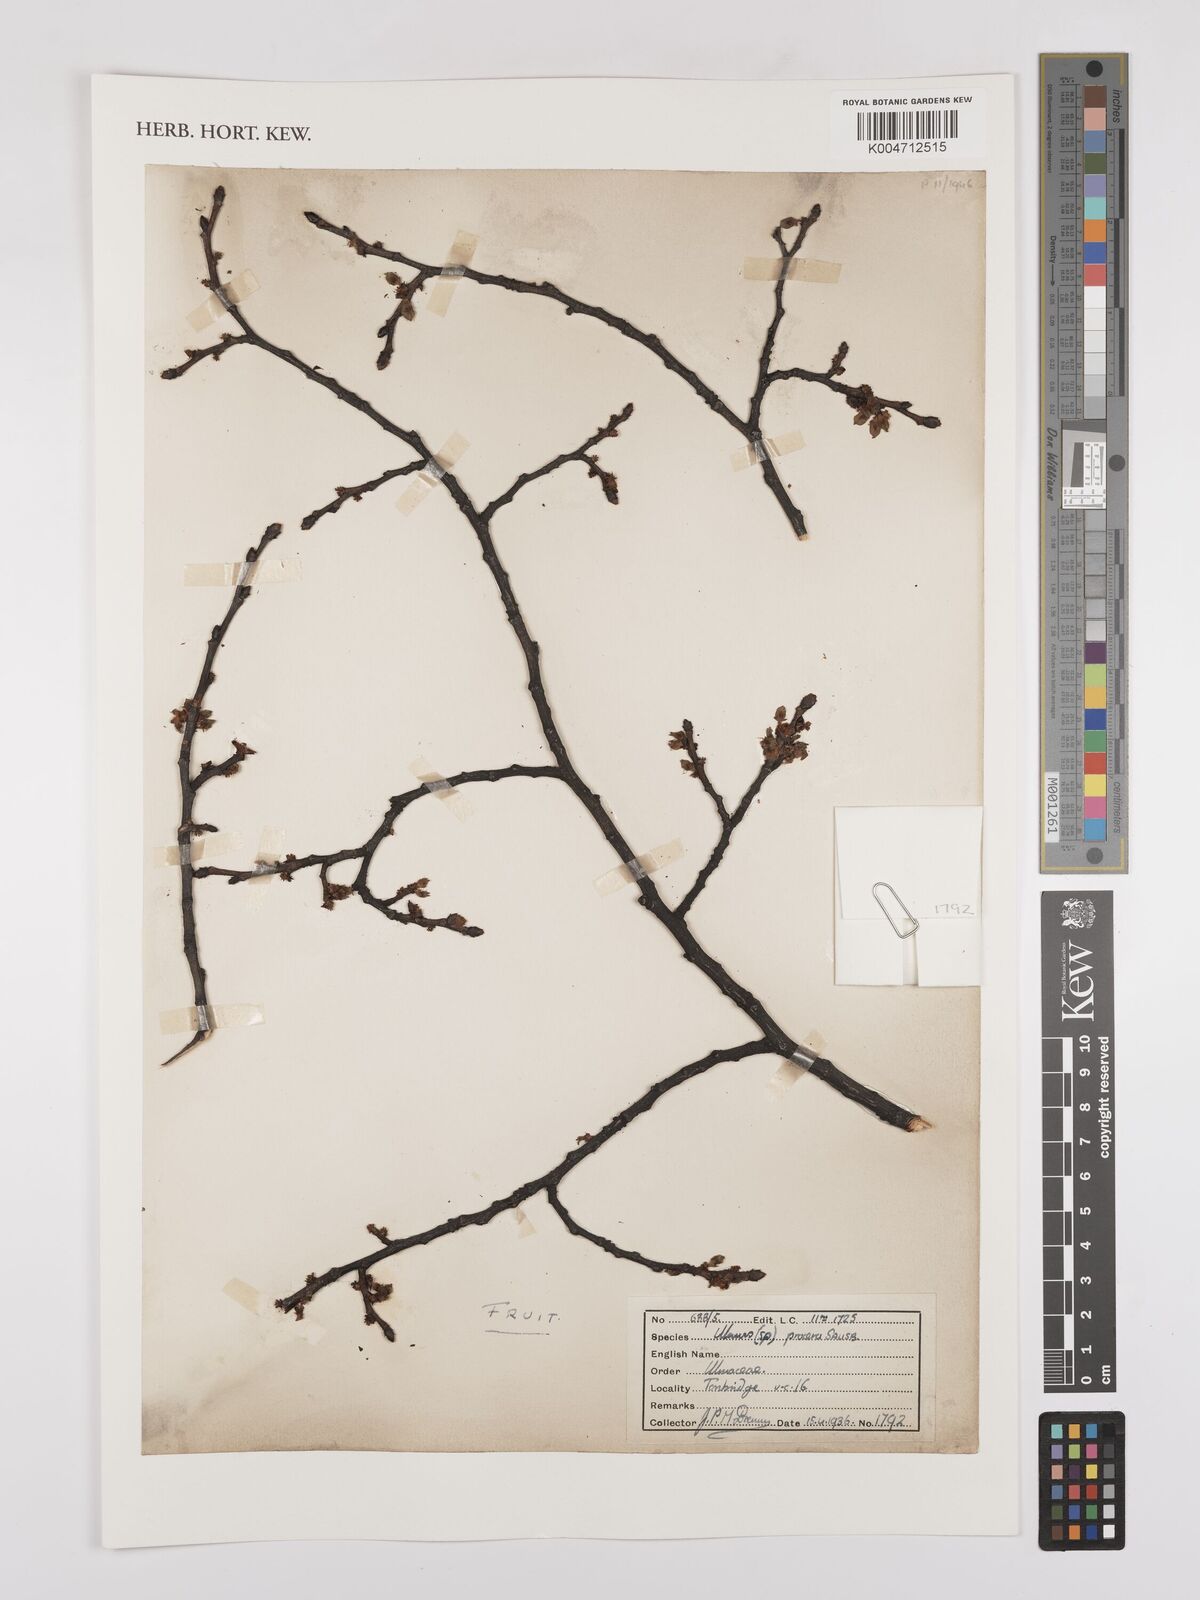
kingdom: Plantae
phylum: Tracheophyta
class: Magnoliopsida
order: Rosales
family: Ulmaceae
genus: Ulmus
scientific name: Ulmus minor
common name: Small-leaved elm
